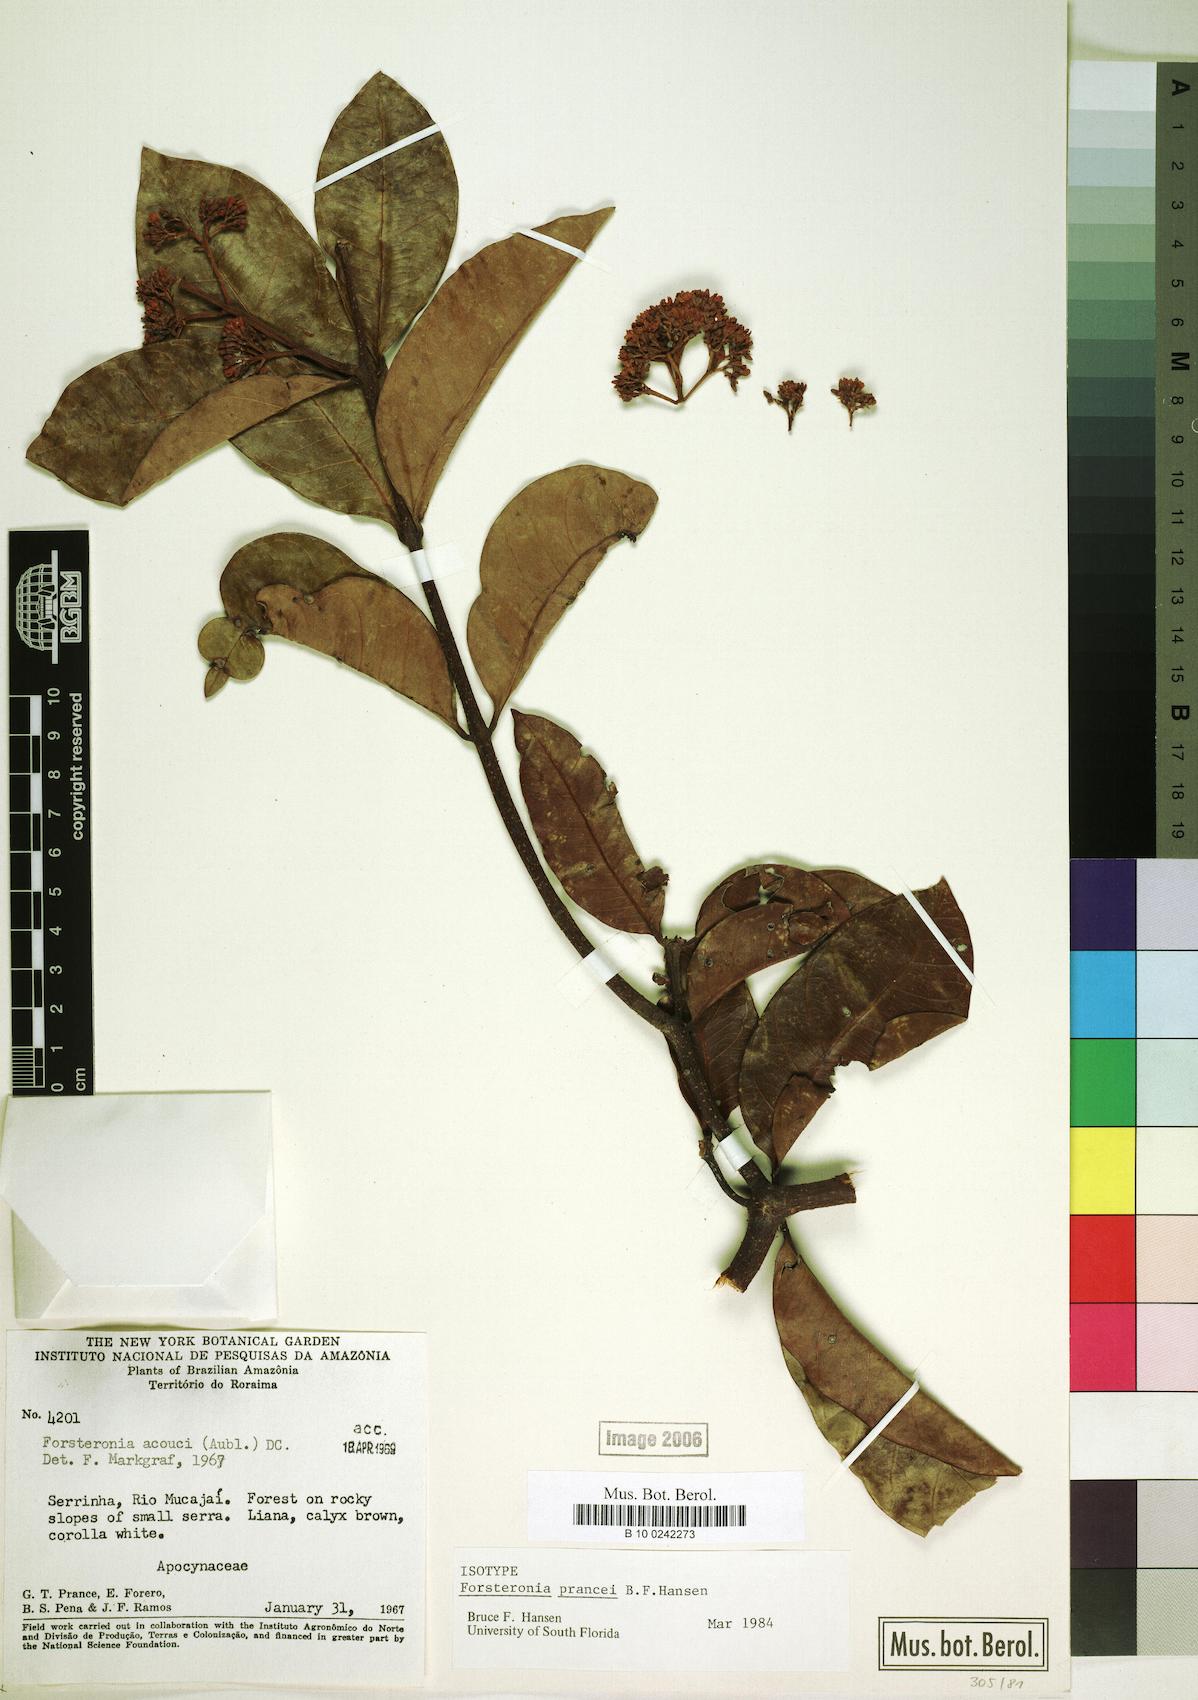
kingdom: Plantae
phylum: Tracheophyta
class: Magnoliopsida
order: Gentianales
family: Apocynaceae
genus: Forsteronia
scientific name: Forsteronia prancei
